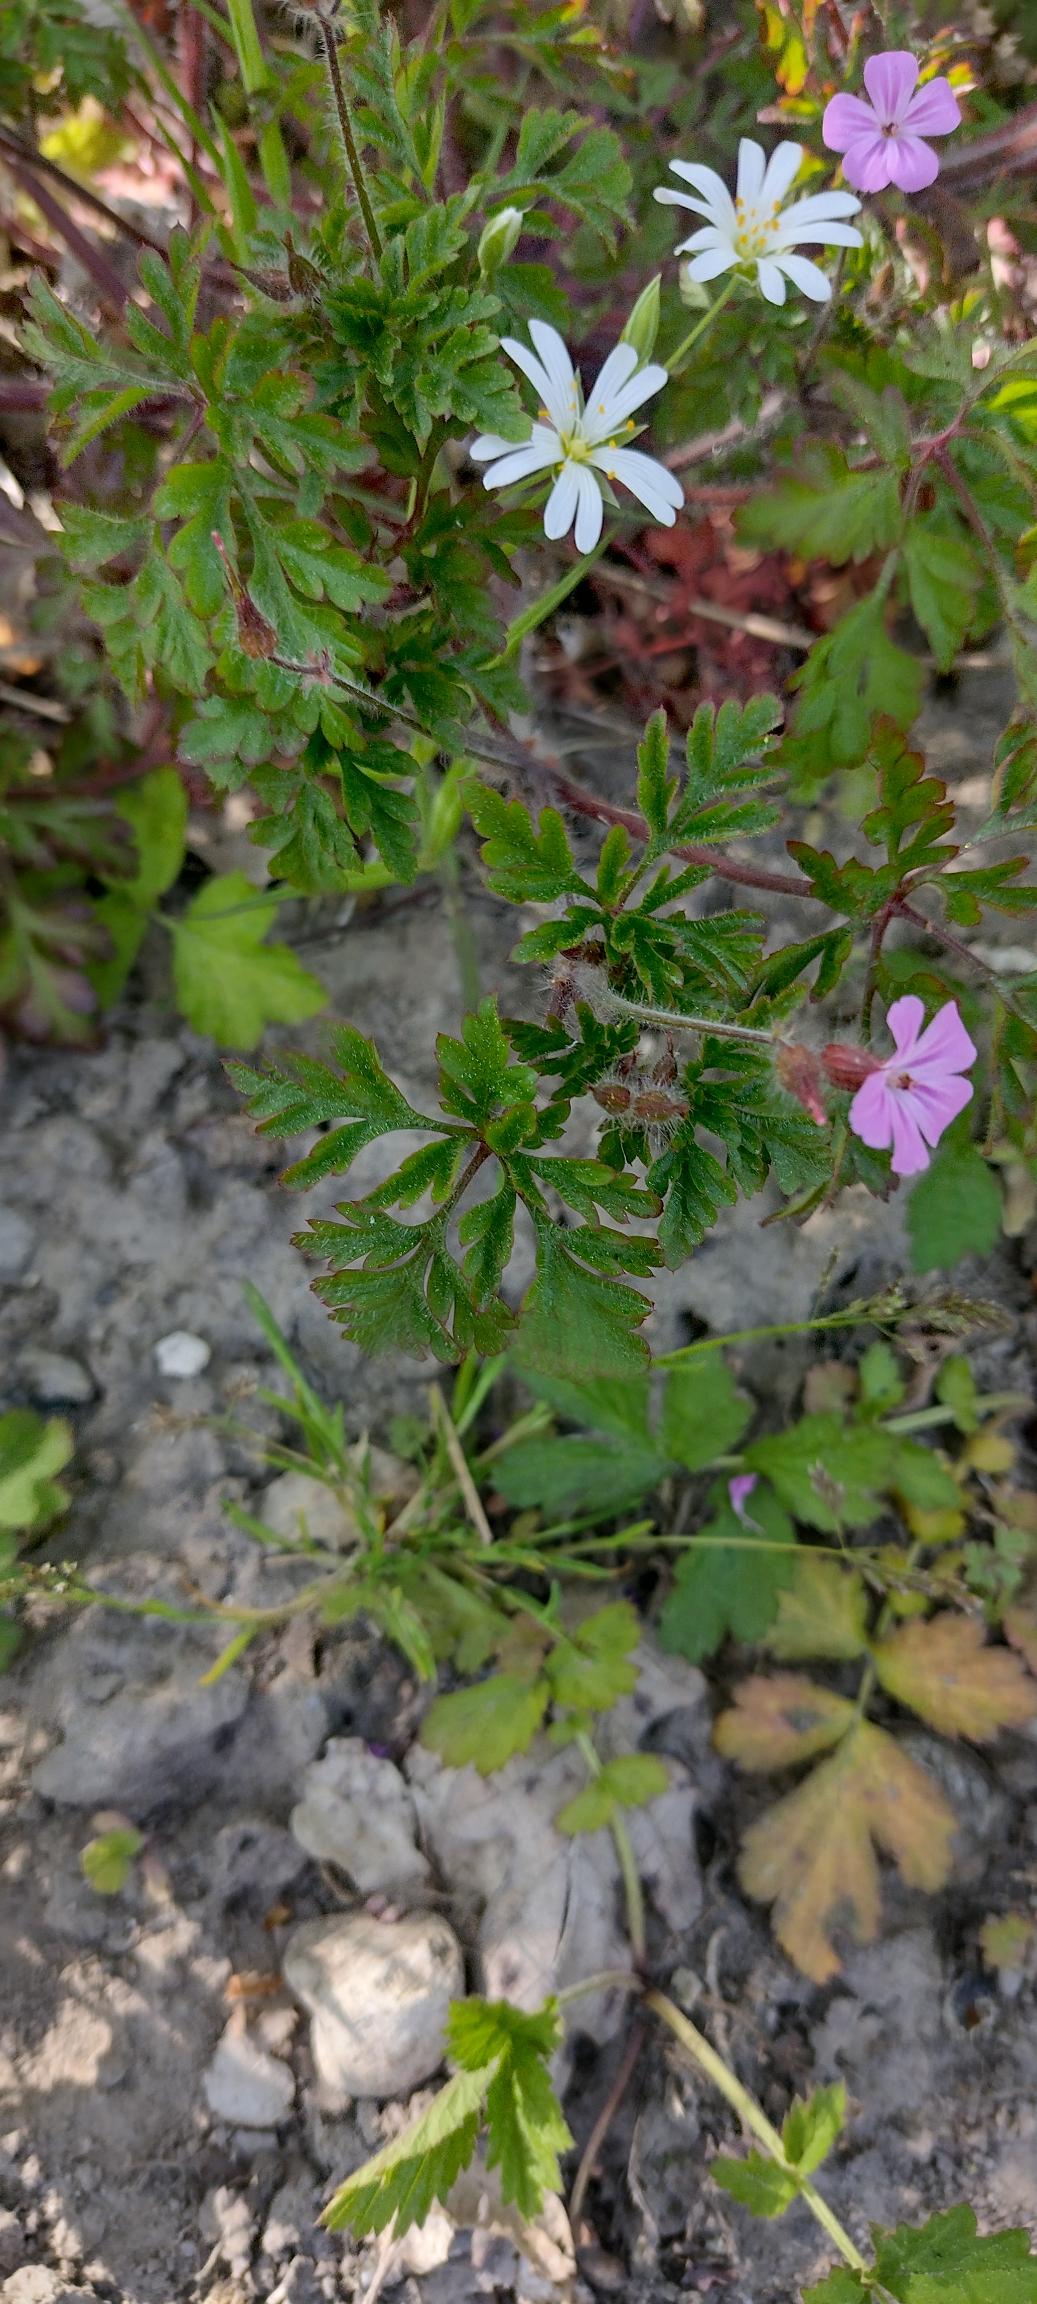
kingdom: Plantae
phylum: Tracheophyta
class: Magnoliopsida
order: Geraniales
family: Geraniaceae
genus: Geranium
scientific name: Geranium robertianum
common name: Stinkende storkenæb
